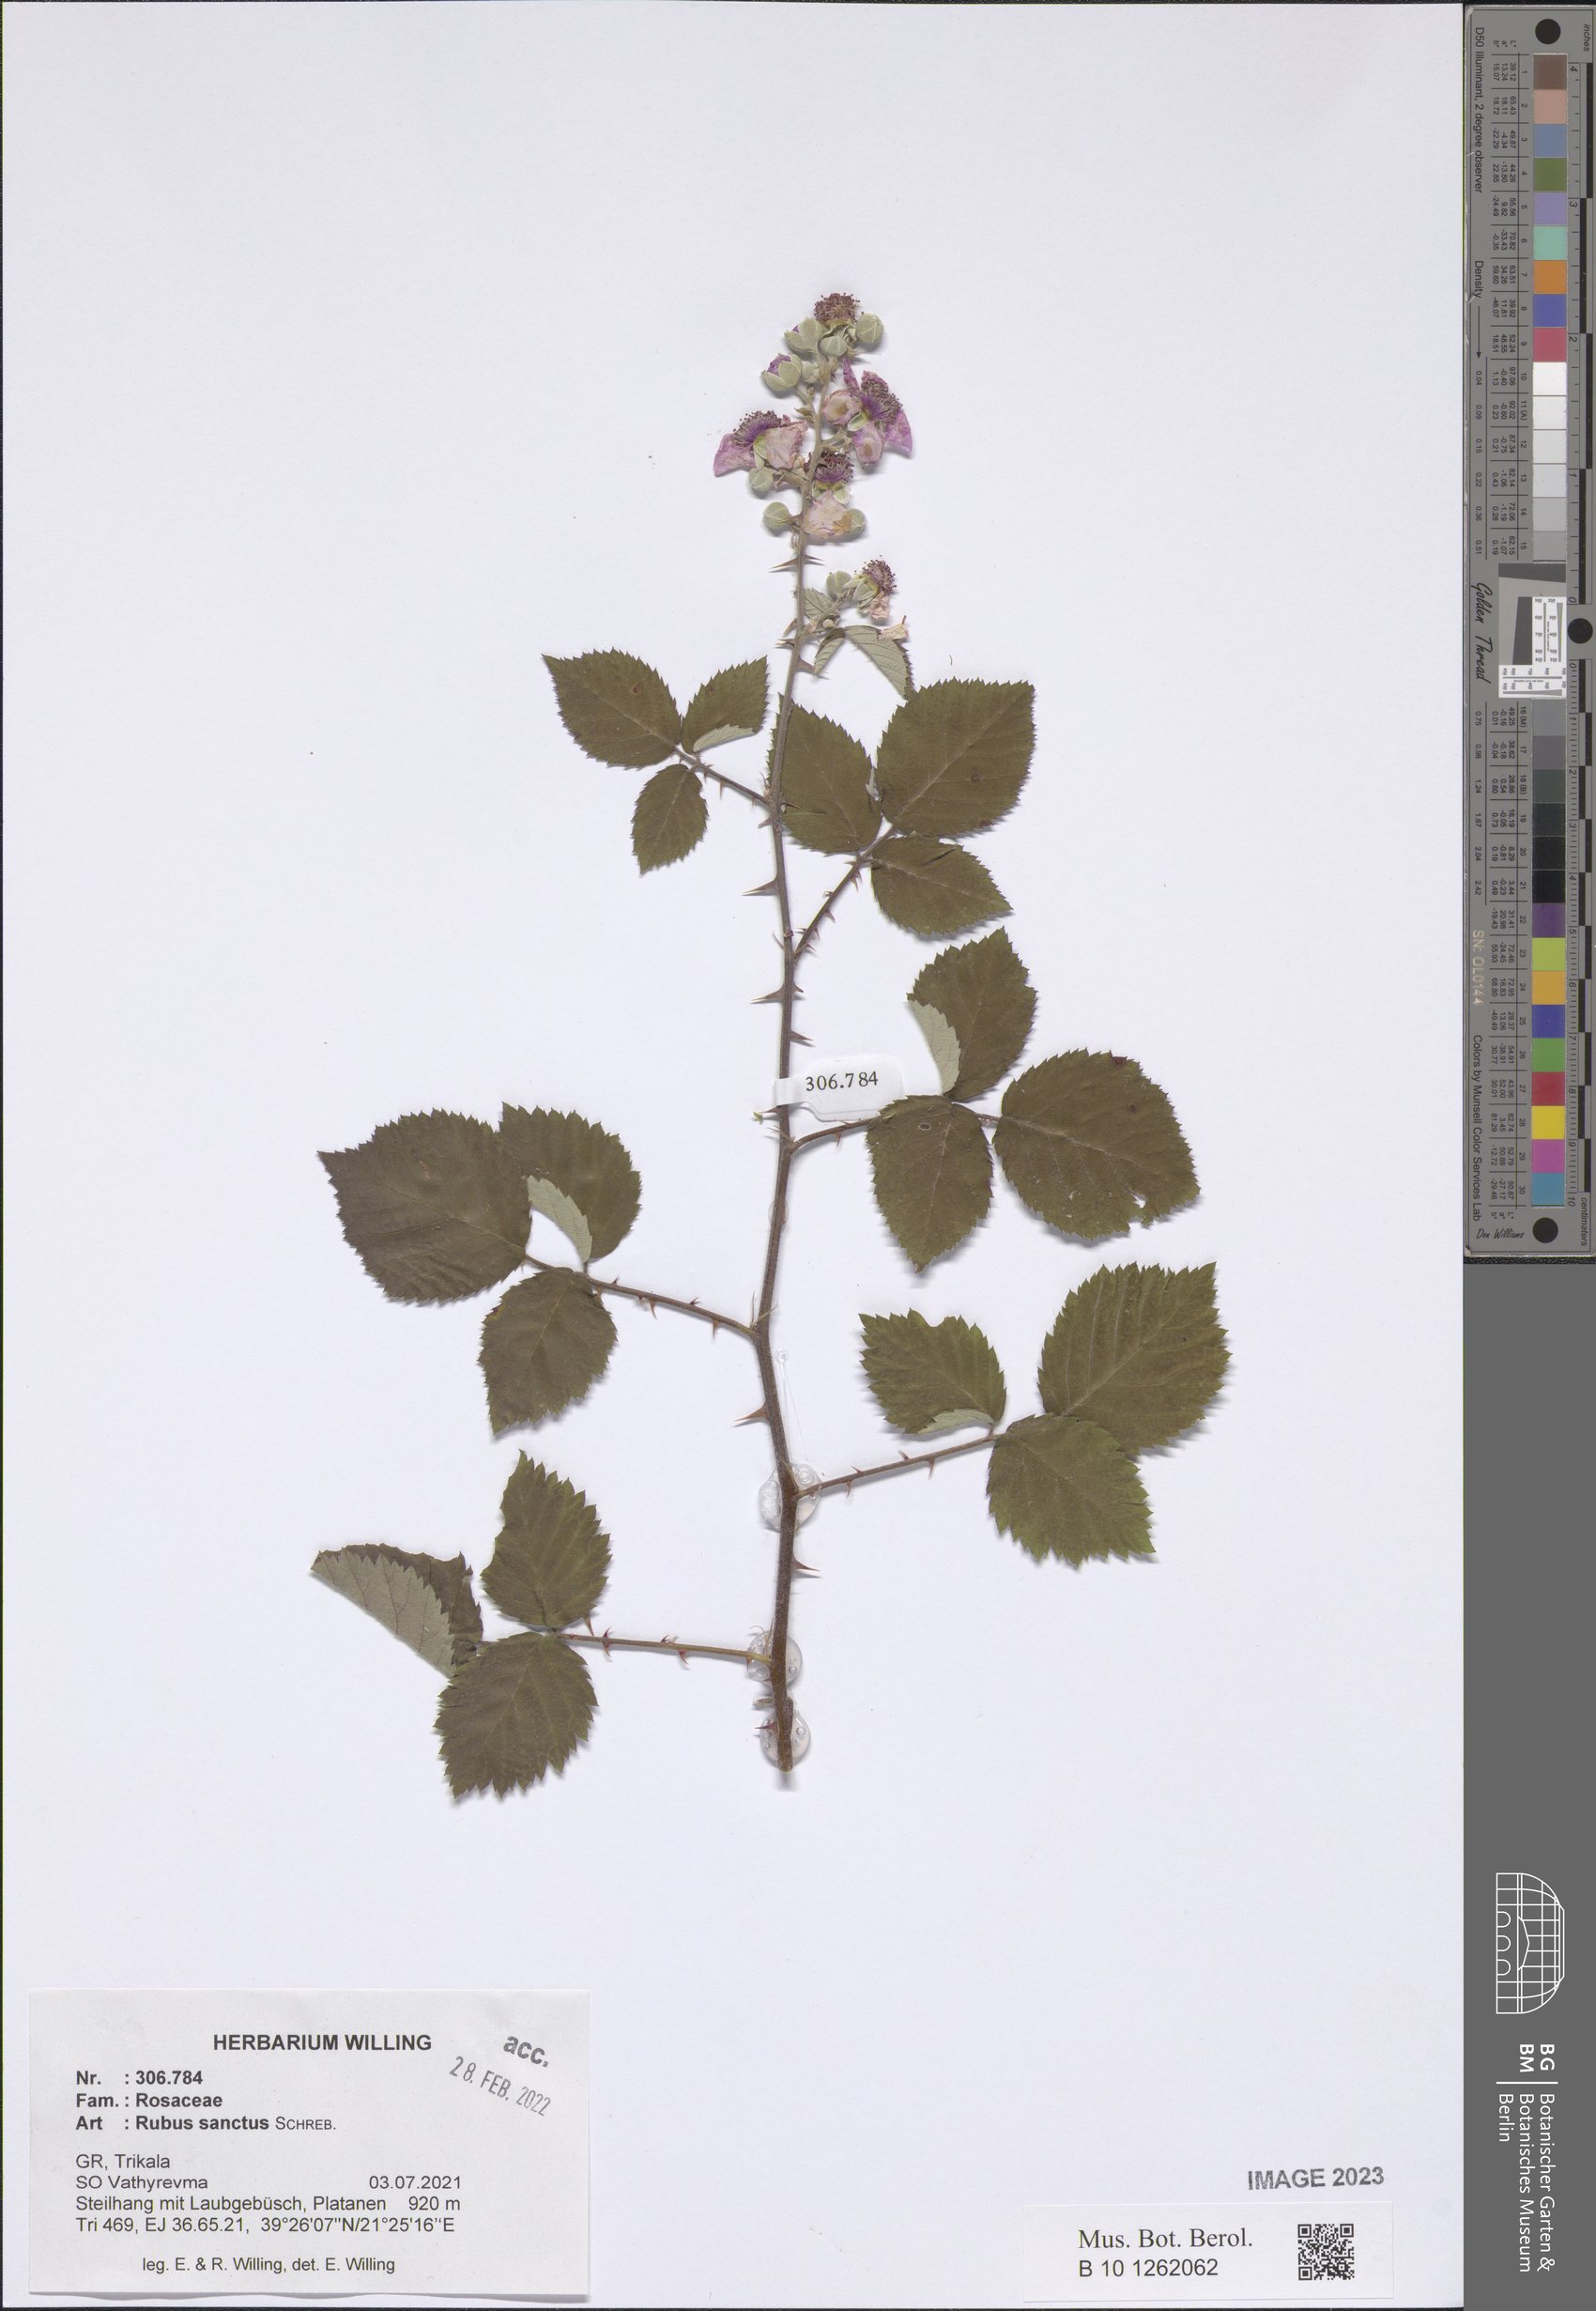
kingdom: Plantae
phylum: Tracheophyta
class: Magnoliopsida
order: Rosales
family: Rosaceae
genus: Rubus
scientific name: Rubus sanctus
